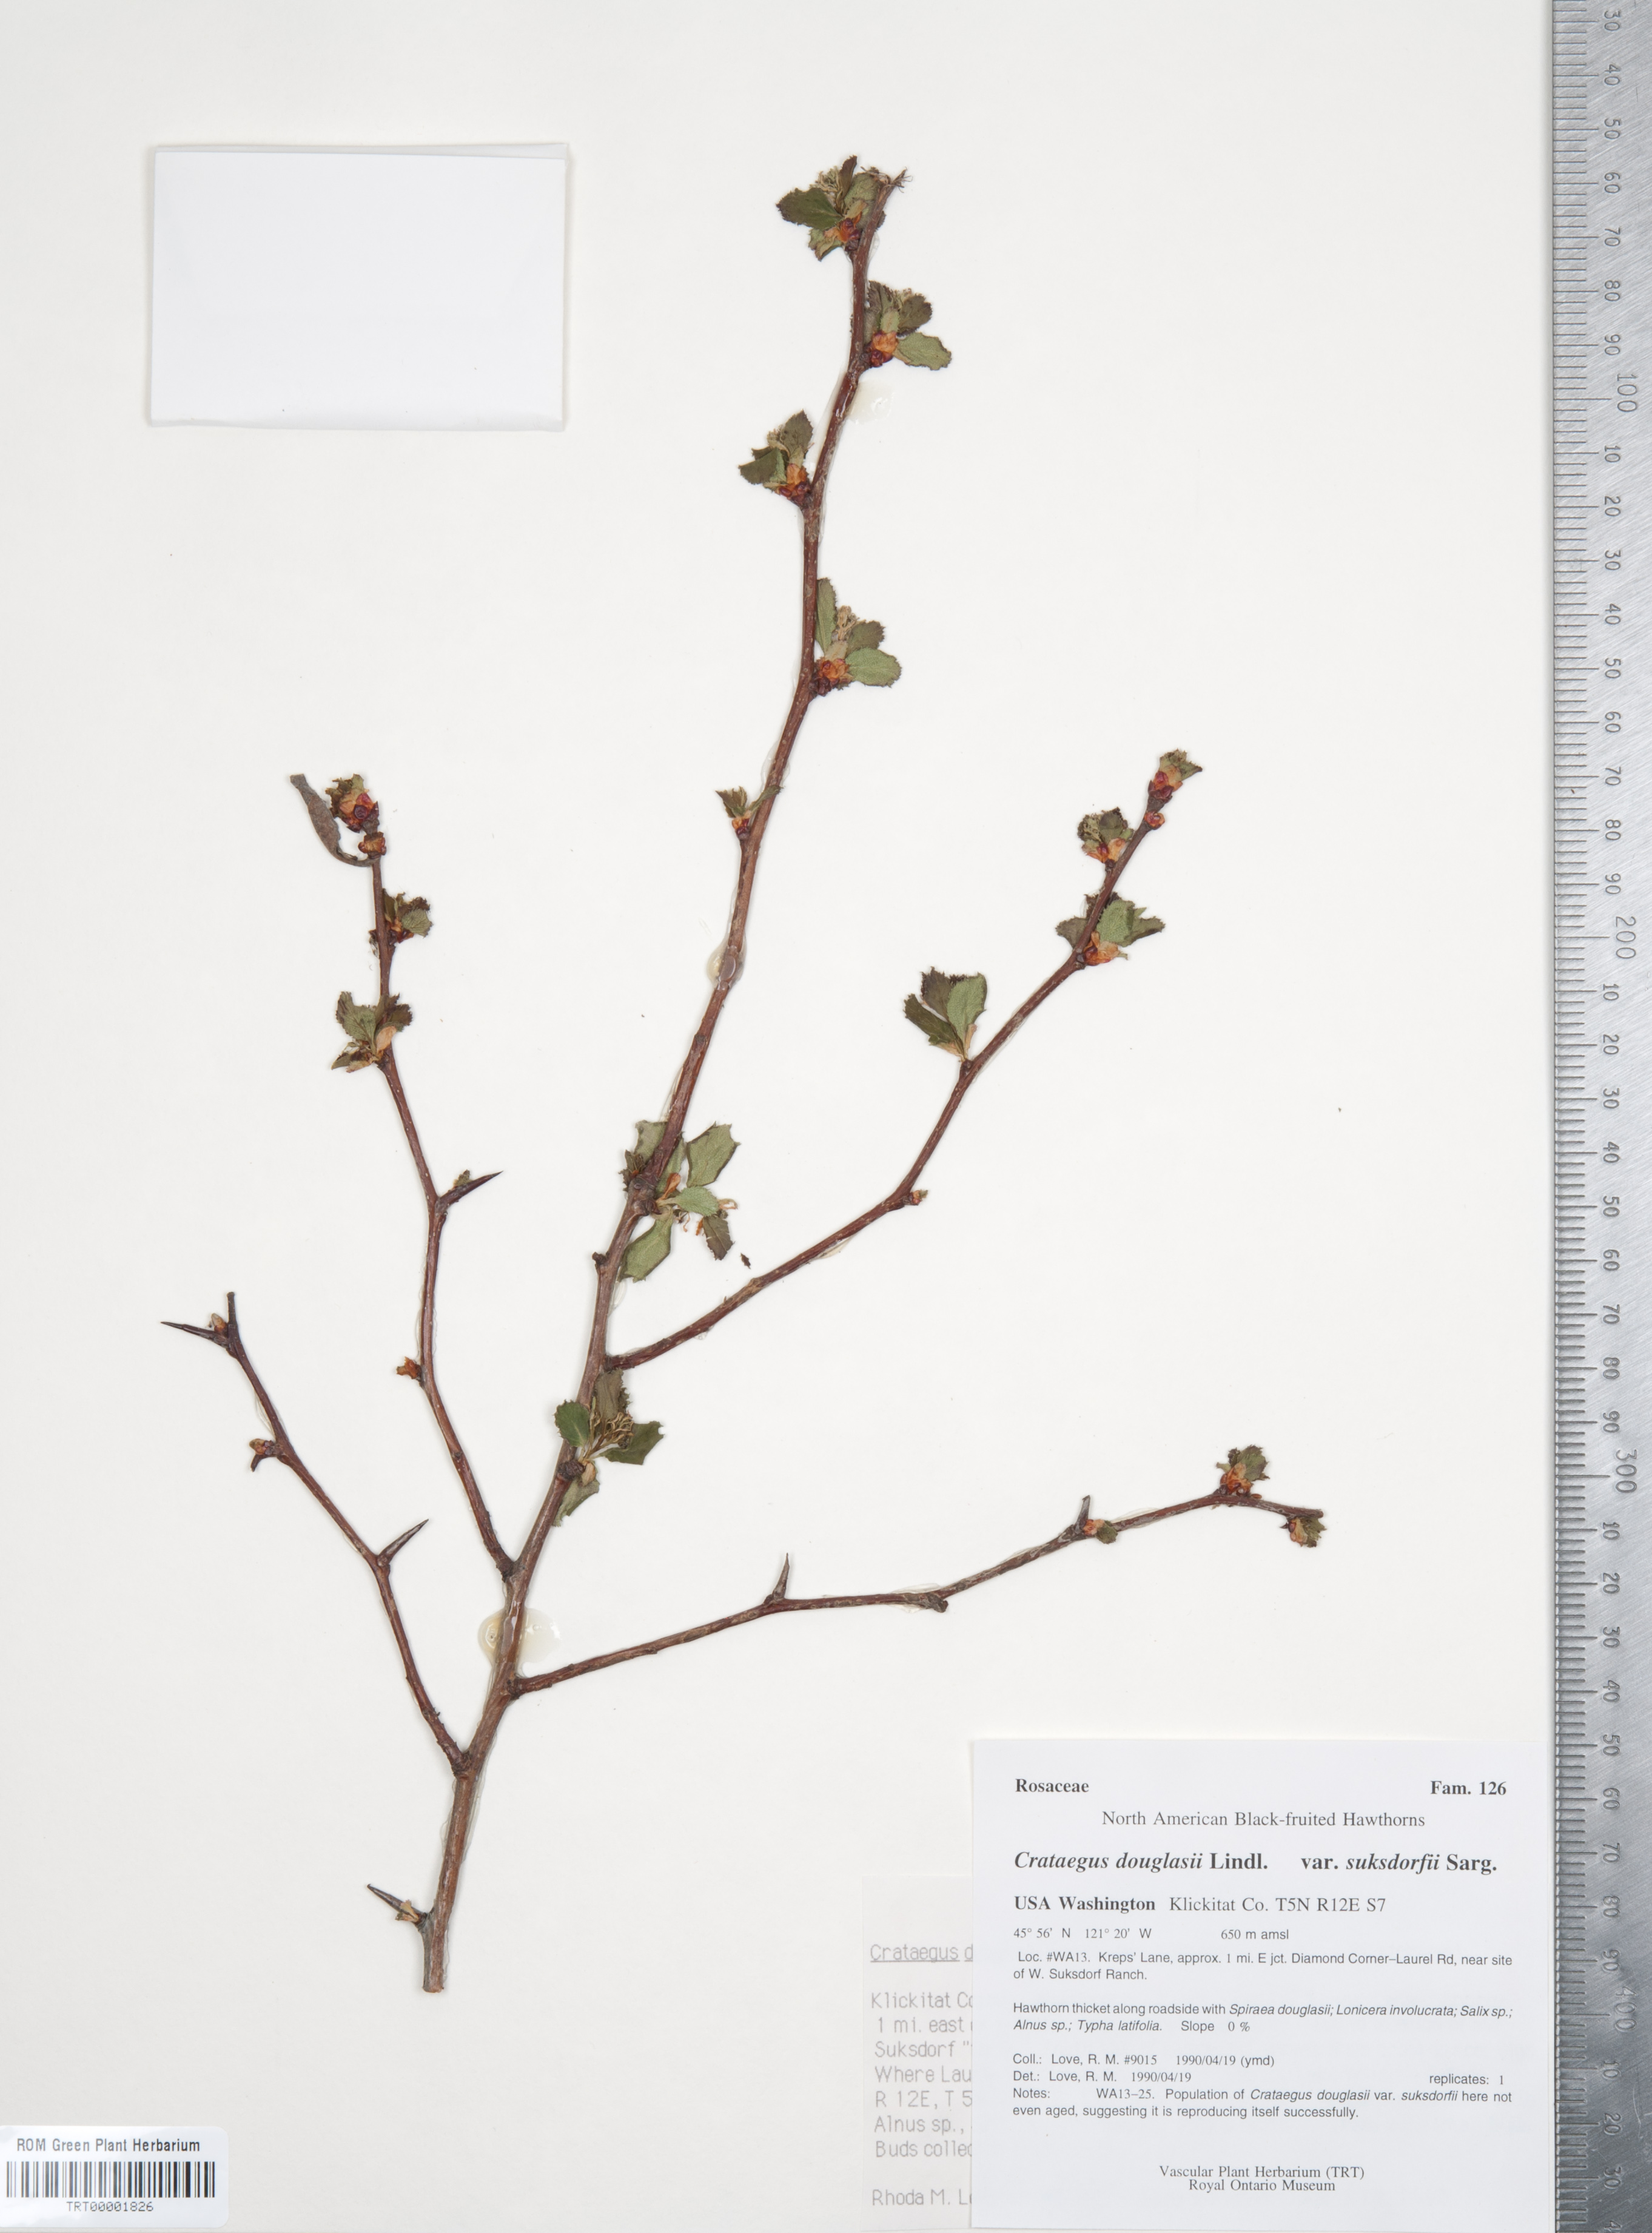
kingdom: Plantae
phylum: Tracheophyta
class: Magnoliopsida
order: Rosales
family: Rosaceae
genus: Crataegus
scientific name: Crataegus gaylussacia
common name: Huckleberry hawthorn
